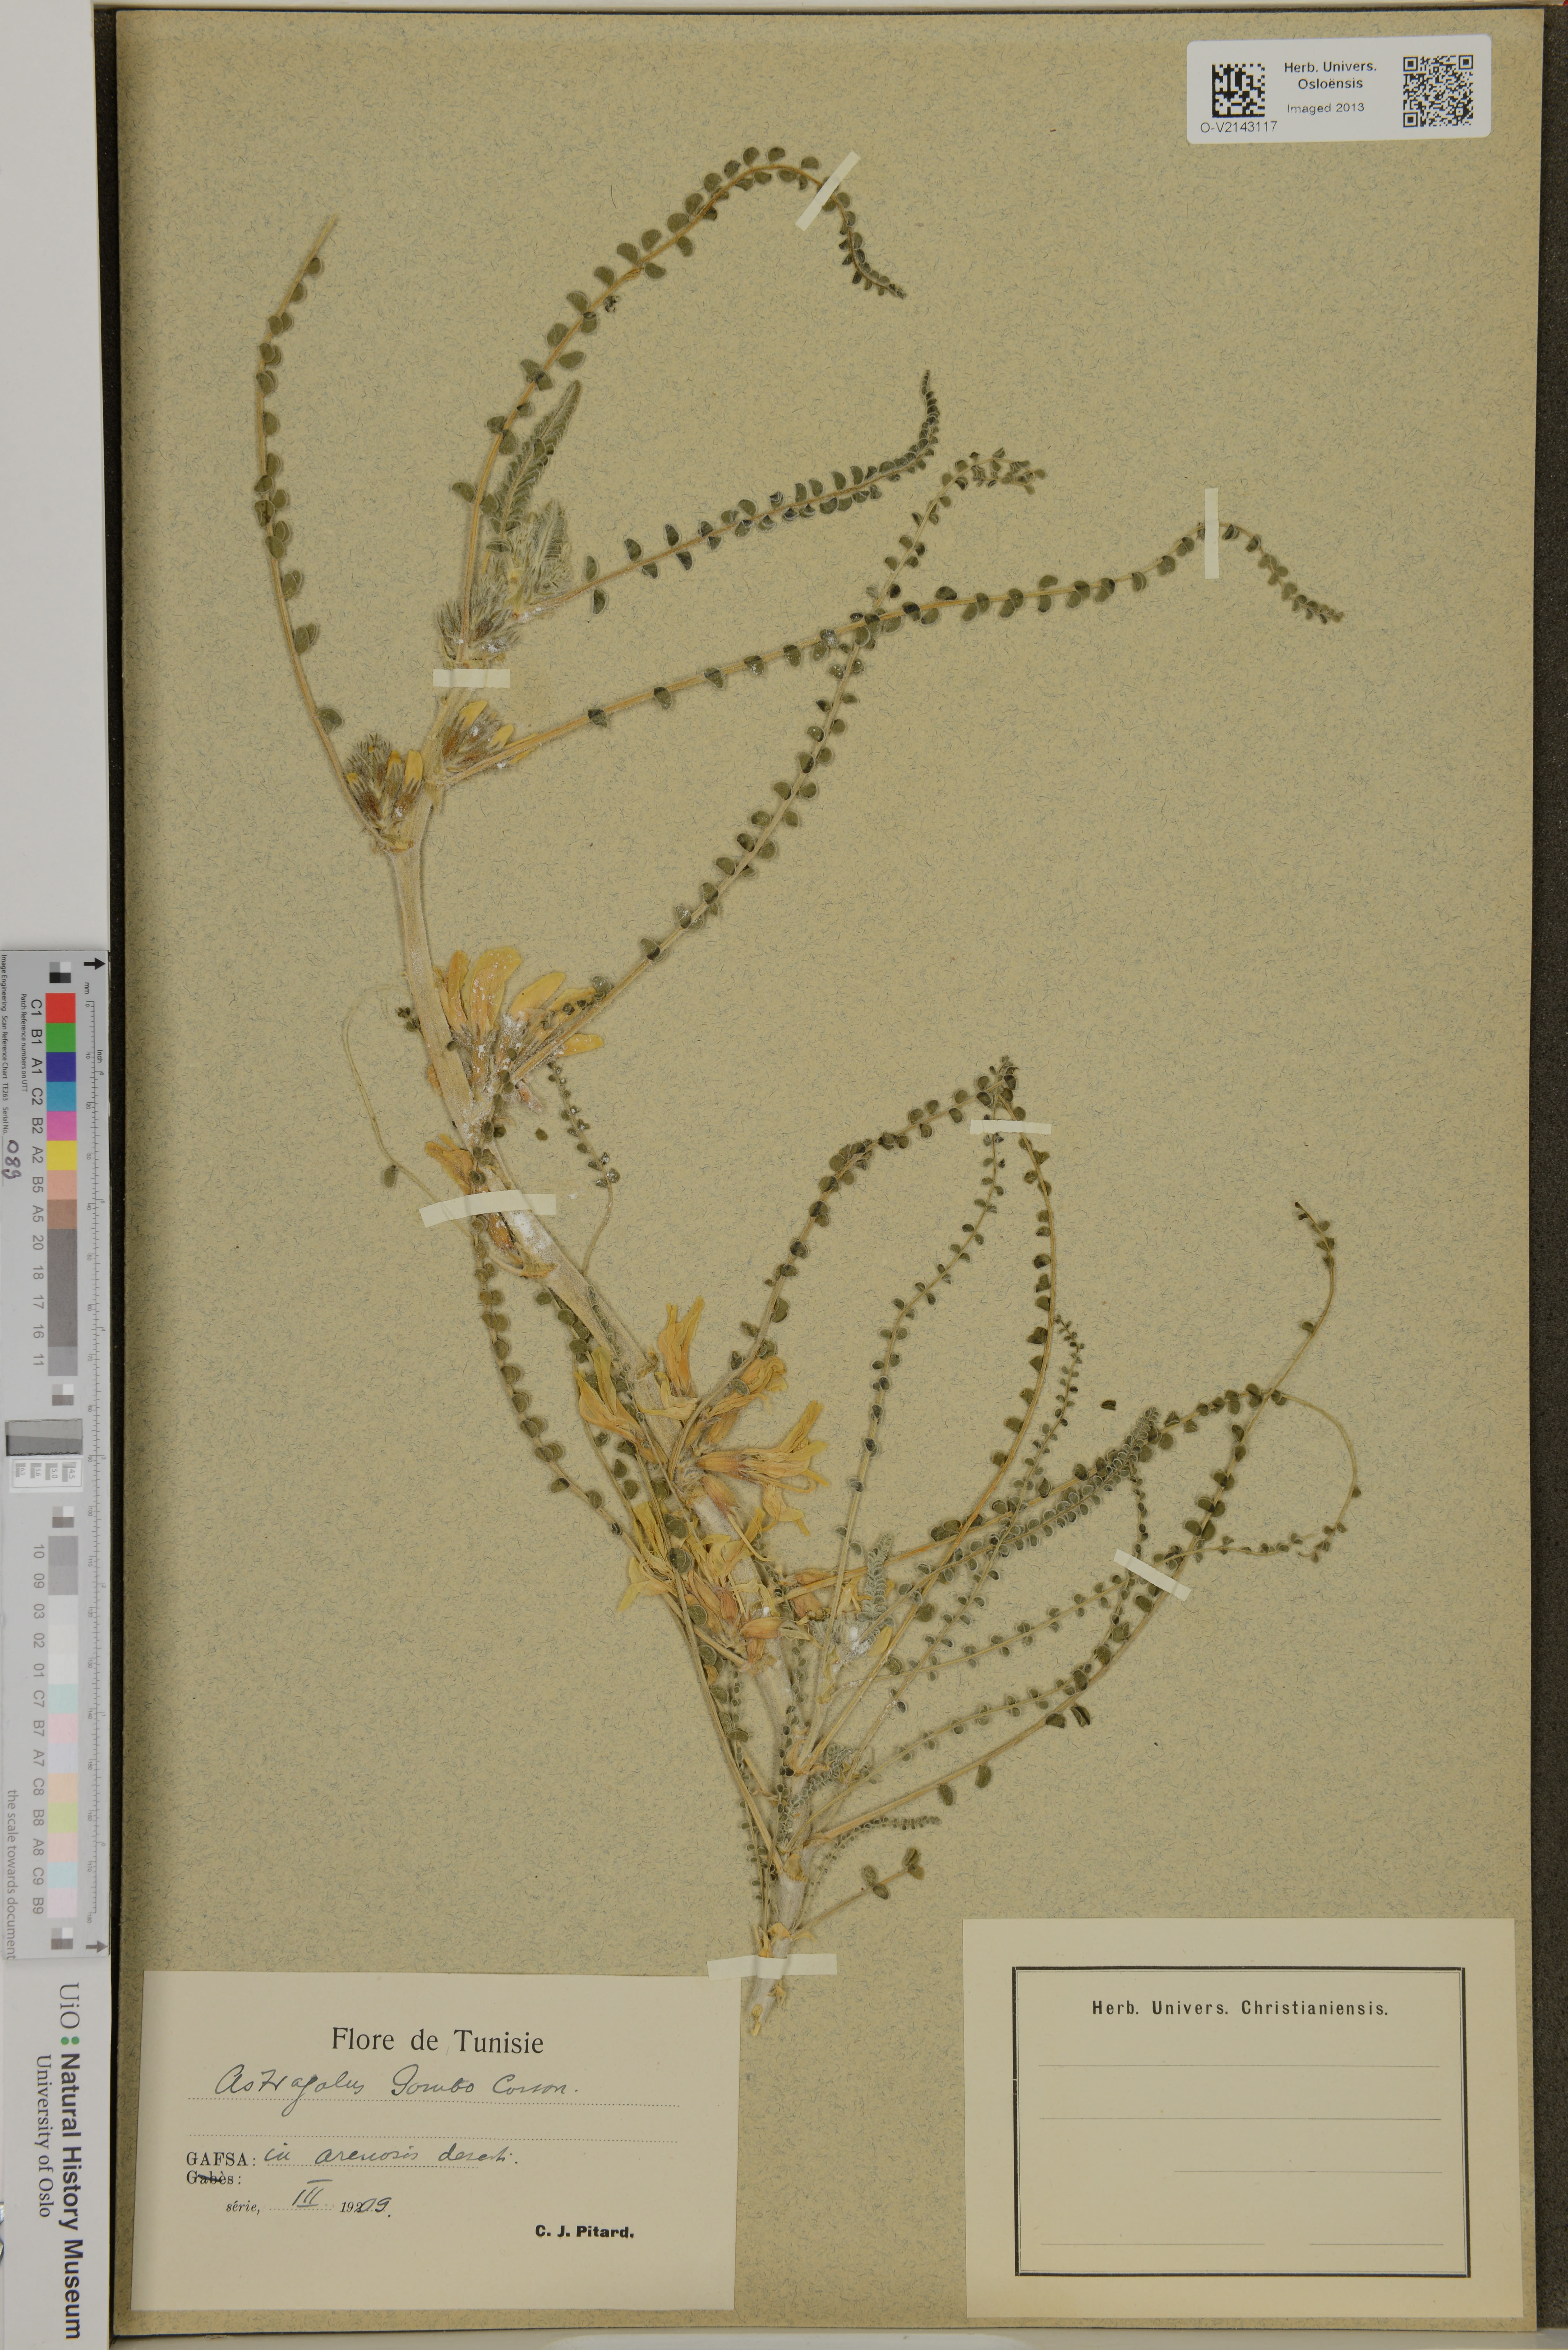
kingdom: Plantae
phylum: Tracheophyta
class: Magnoliopsida
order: Fabales
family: Fabaceae
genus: Astragalus
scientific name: Astragalus gombo
